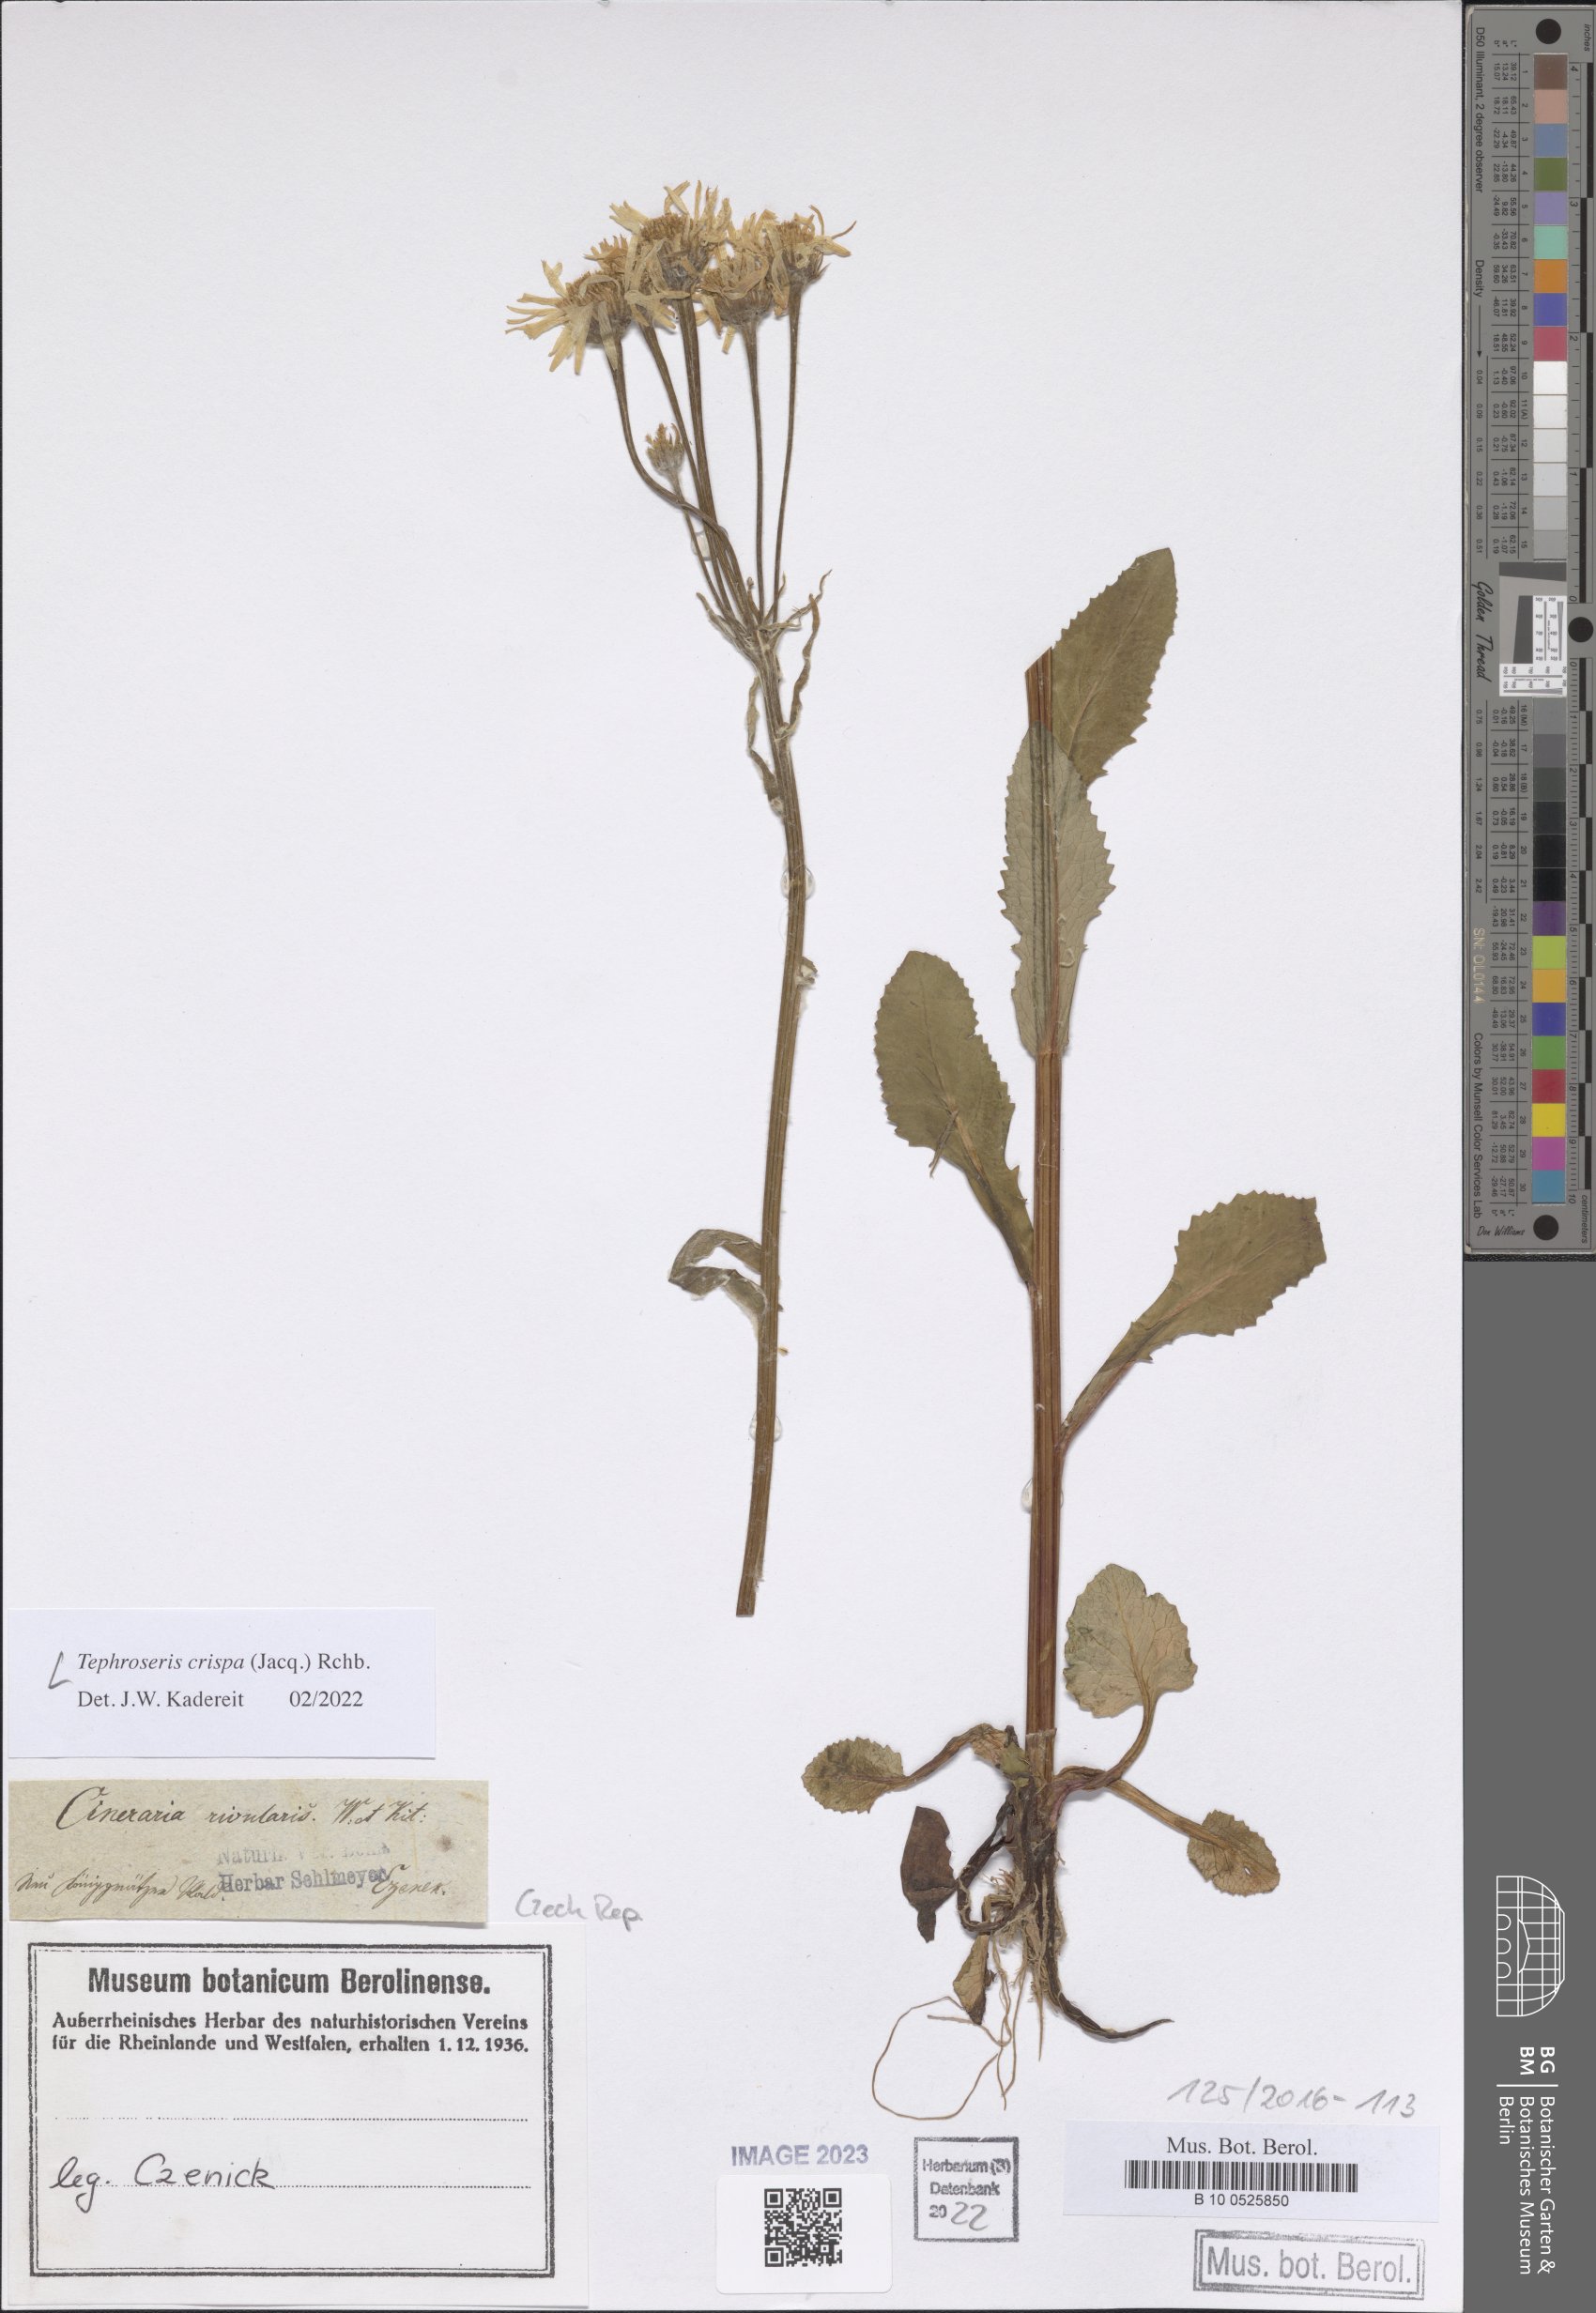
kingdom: Plantae
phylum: Tracheophyta
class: Magnoliopsida
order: Asterales
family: Asteraceae
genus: Tephroseris
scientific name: Tephroseris crispa
